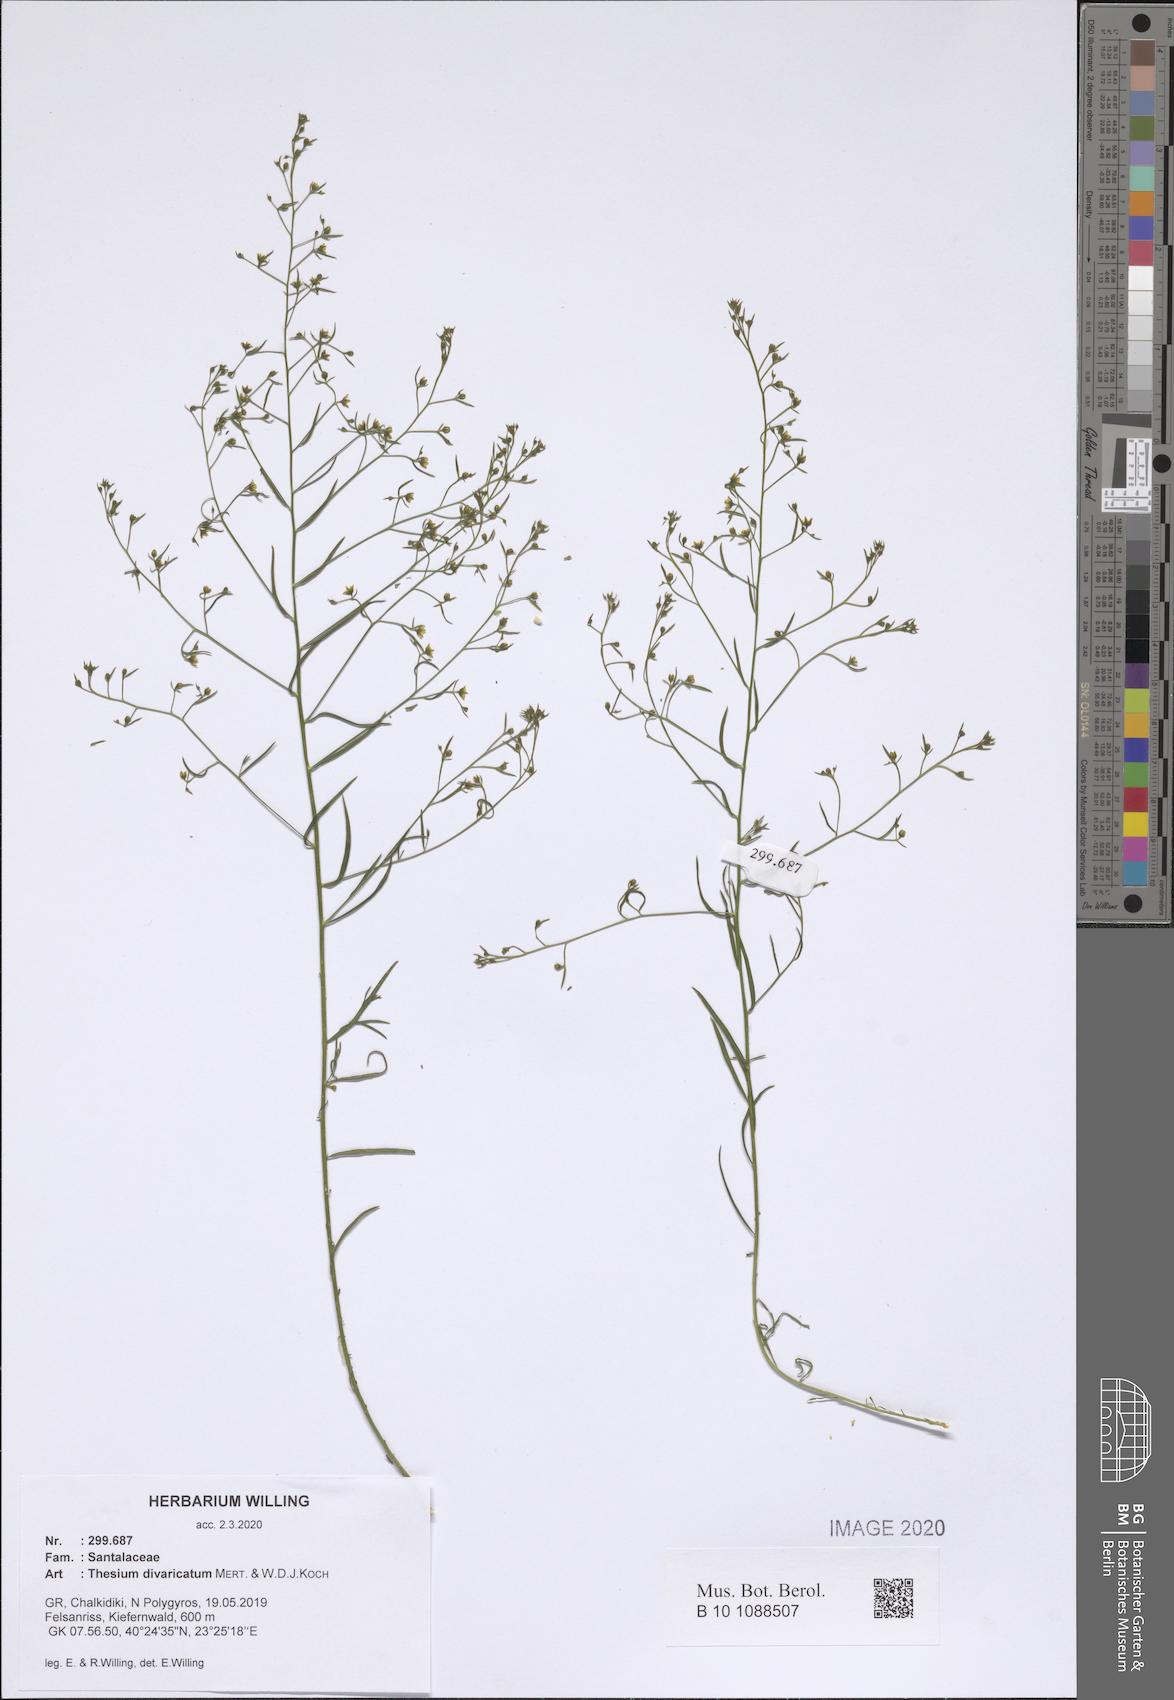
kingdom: Plantae
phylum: Tracheophyta
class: Magnoliopsida
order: Santalales
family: Thesiaceae
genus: Thesium
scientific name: Thesium divaricatum
